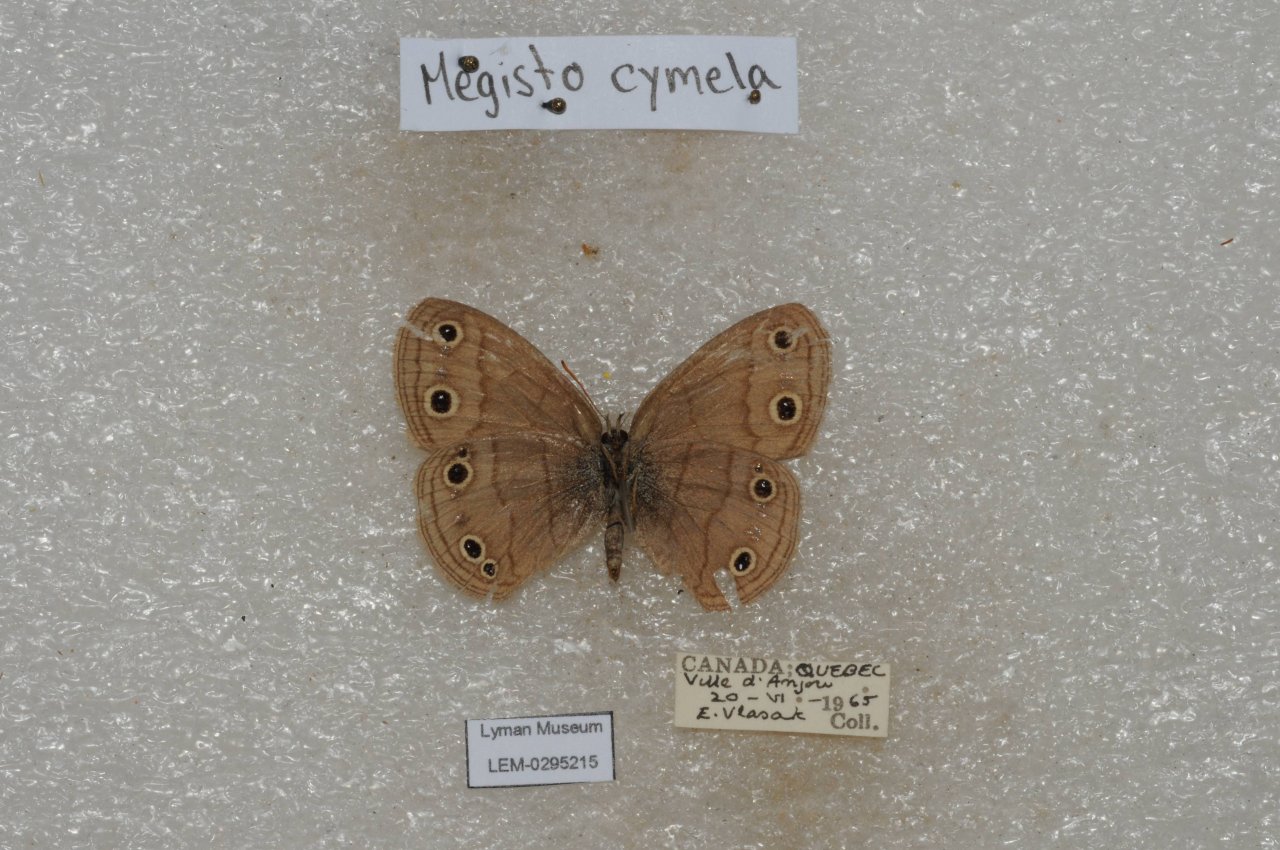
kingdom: Animalia
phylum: Arthropoda
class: Insecta
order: Lepidoptera
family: Nymphalidae
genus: Euptychia
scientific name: Euptychia cymela
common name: Little Wood Satyr
